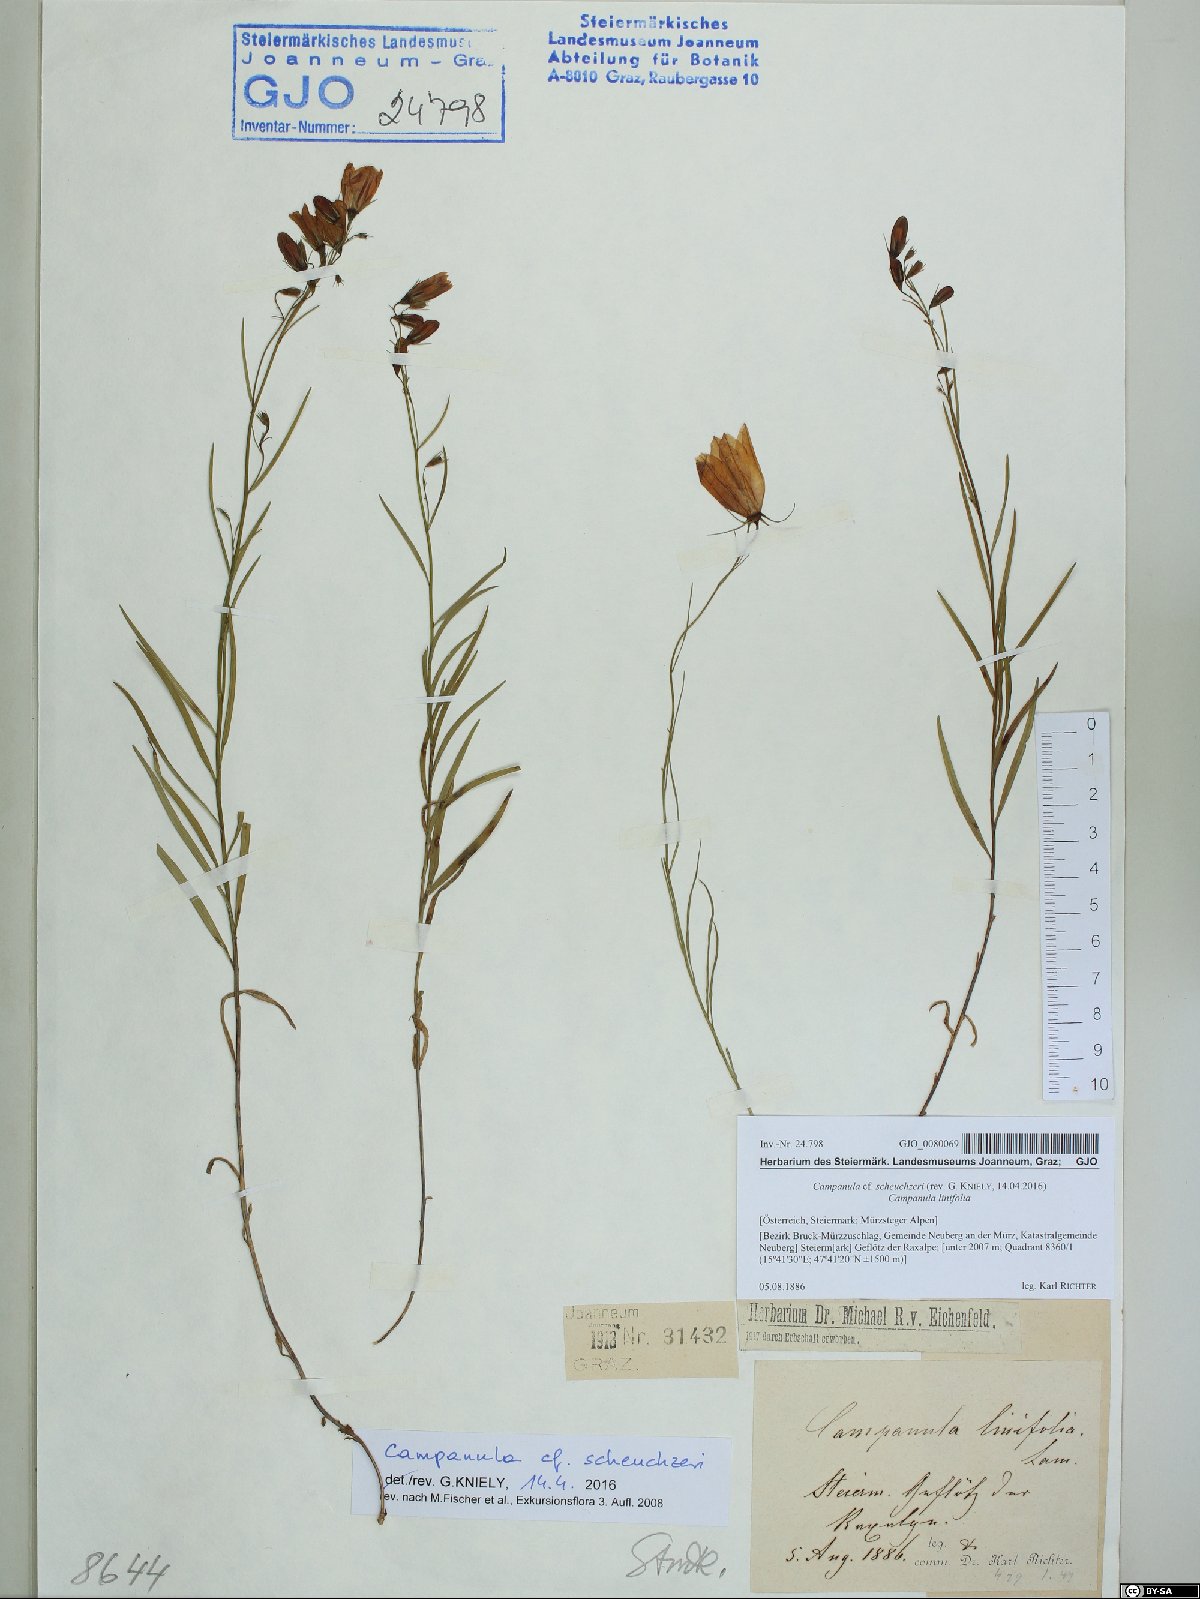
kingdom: Plantae
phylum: Tracheophyta
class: Magnoliopsida
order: Asterales
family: Campanulaceae
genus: Campanula
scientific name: Campanula scheuchzeri
